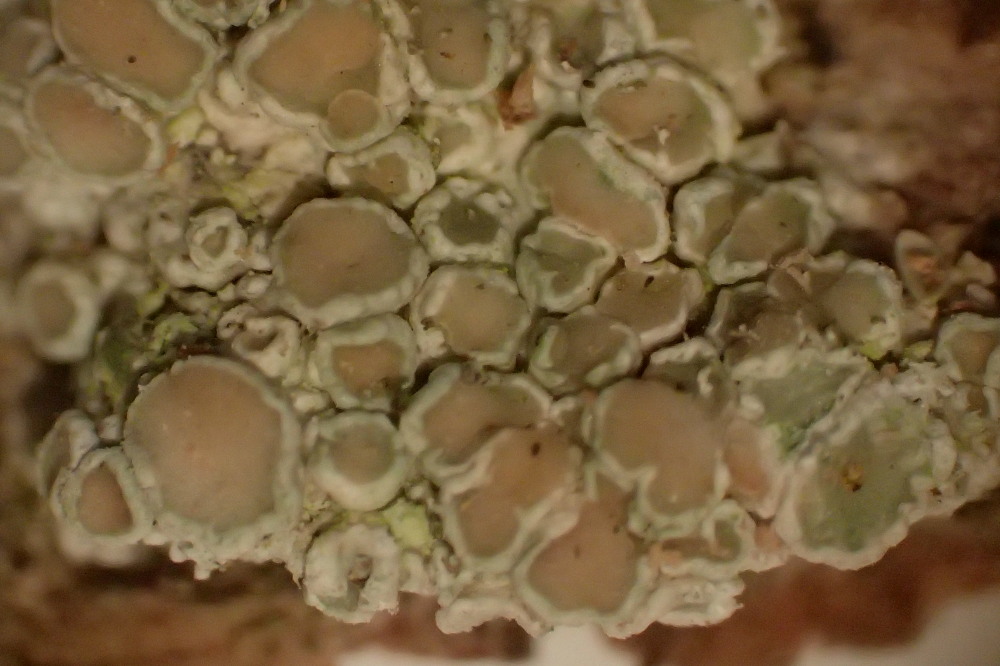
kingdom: Fungi
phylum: Ascomycota
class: Lecanoromycetes
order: Lecanorales
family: Lecanoraceae
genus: Lecanora
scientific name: Lecanora chlarotera
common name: brun kantskivelav
